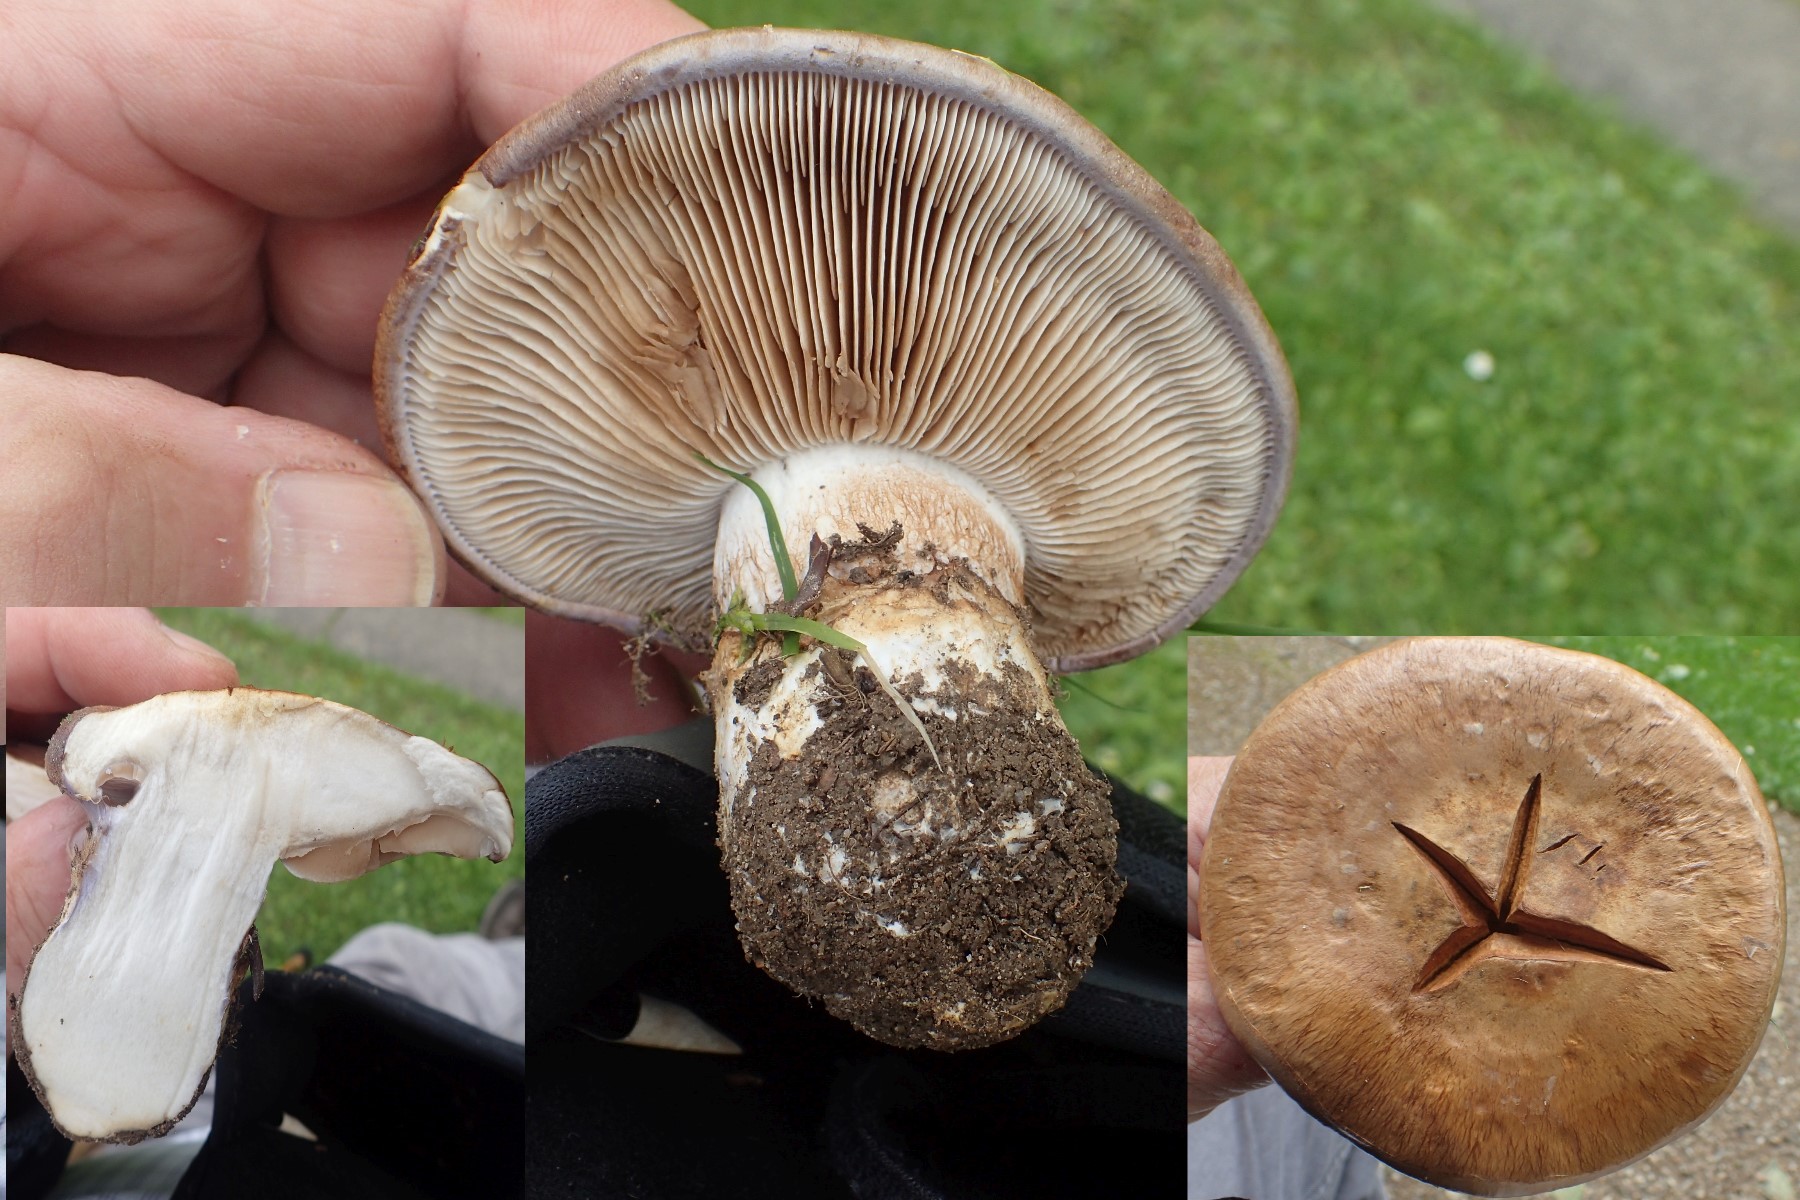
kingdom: Fungi
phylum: Basidiomycota
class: Agaricomycetes
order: Agaricales
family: Cortinariaceae
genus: Phlegmacium
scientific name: Phlegmacium balteatocumatile
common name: violettrådet slørhat
